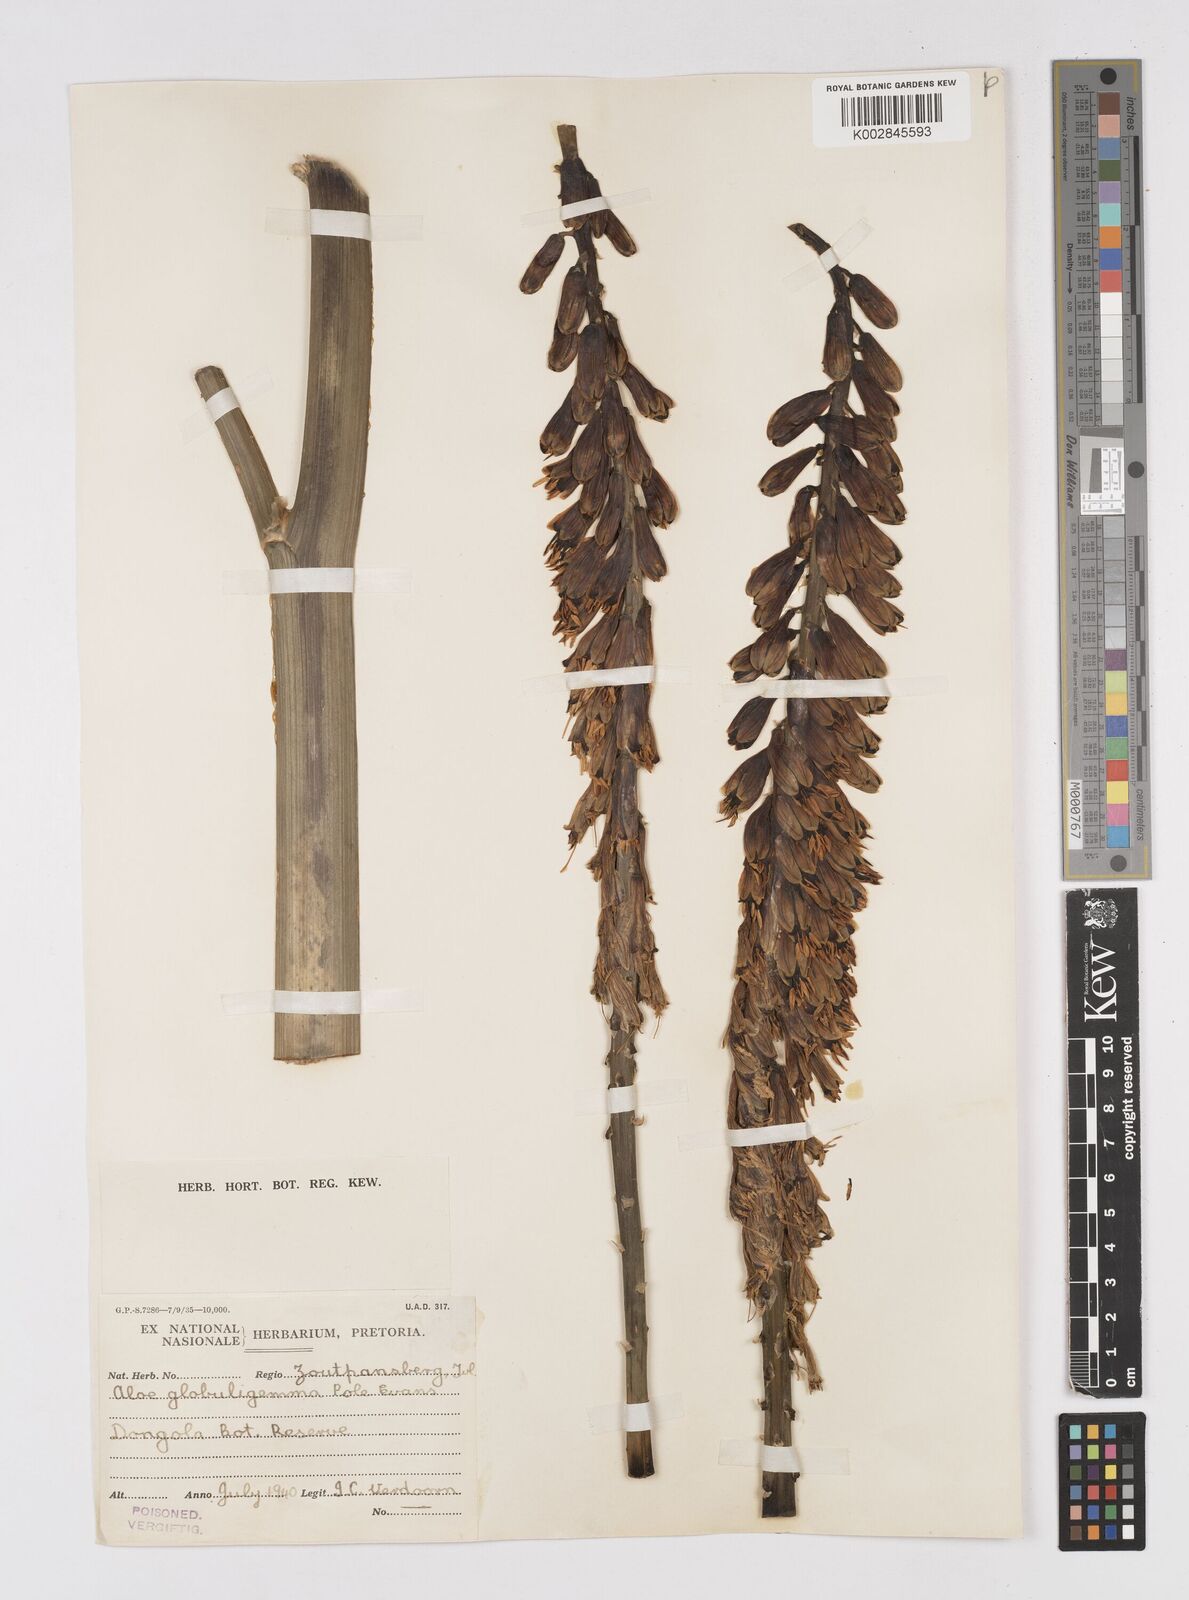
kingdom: Plantae
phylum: Tracheophyta
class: Liliopsida
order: Asparagales
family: Asphodelaceae
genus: Aloe
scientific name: Aloe globuligemma
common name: Witchdoctor's aloe
